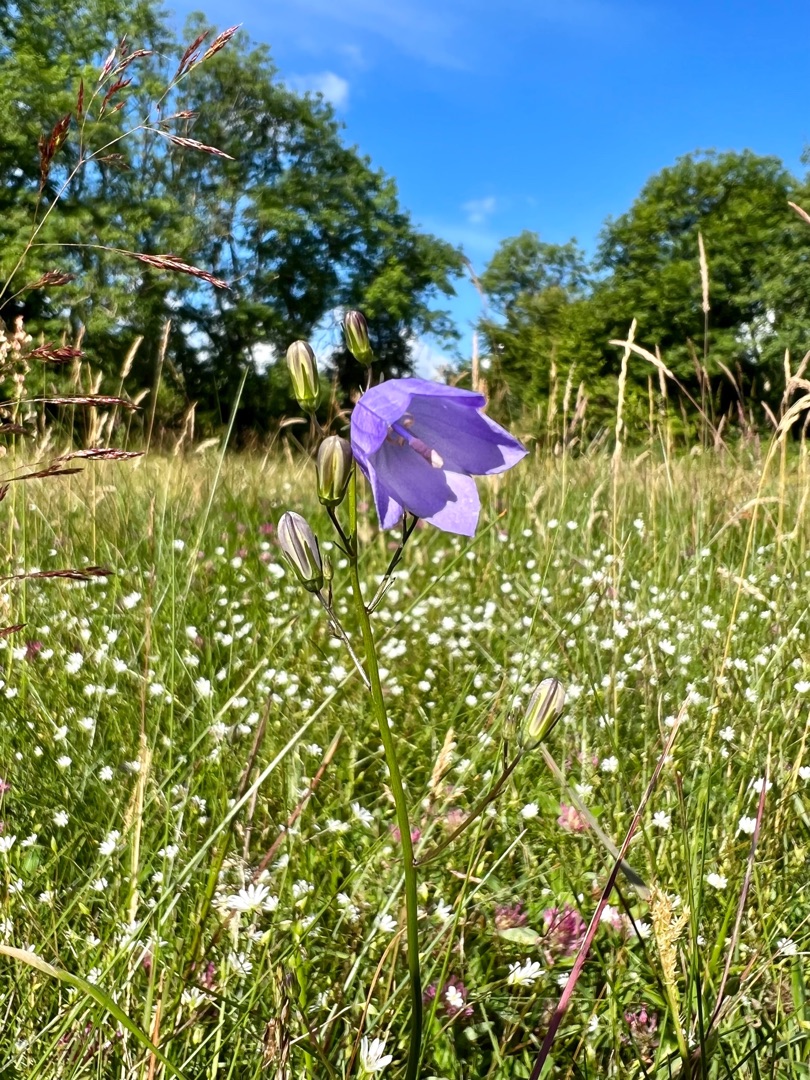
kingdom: Plantae
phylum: Tracheophyta
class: Magnoliopsida
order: Asterales
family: Campanulaceae
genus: Campanula
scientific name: Campanula rotundifolia
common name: Liden klokke
